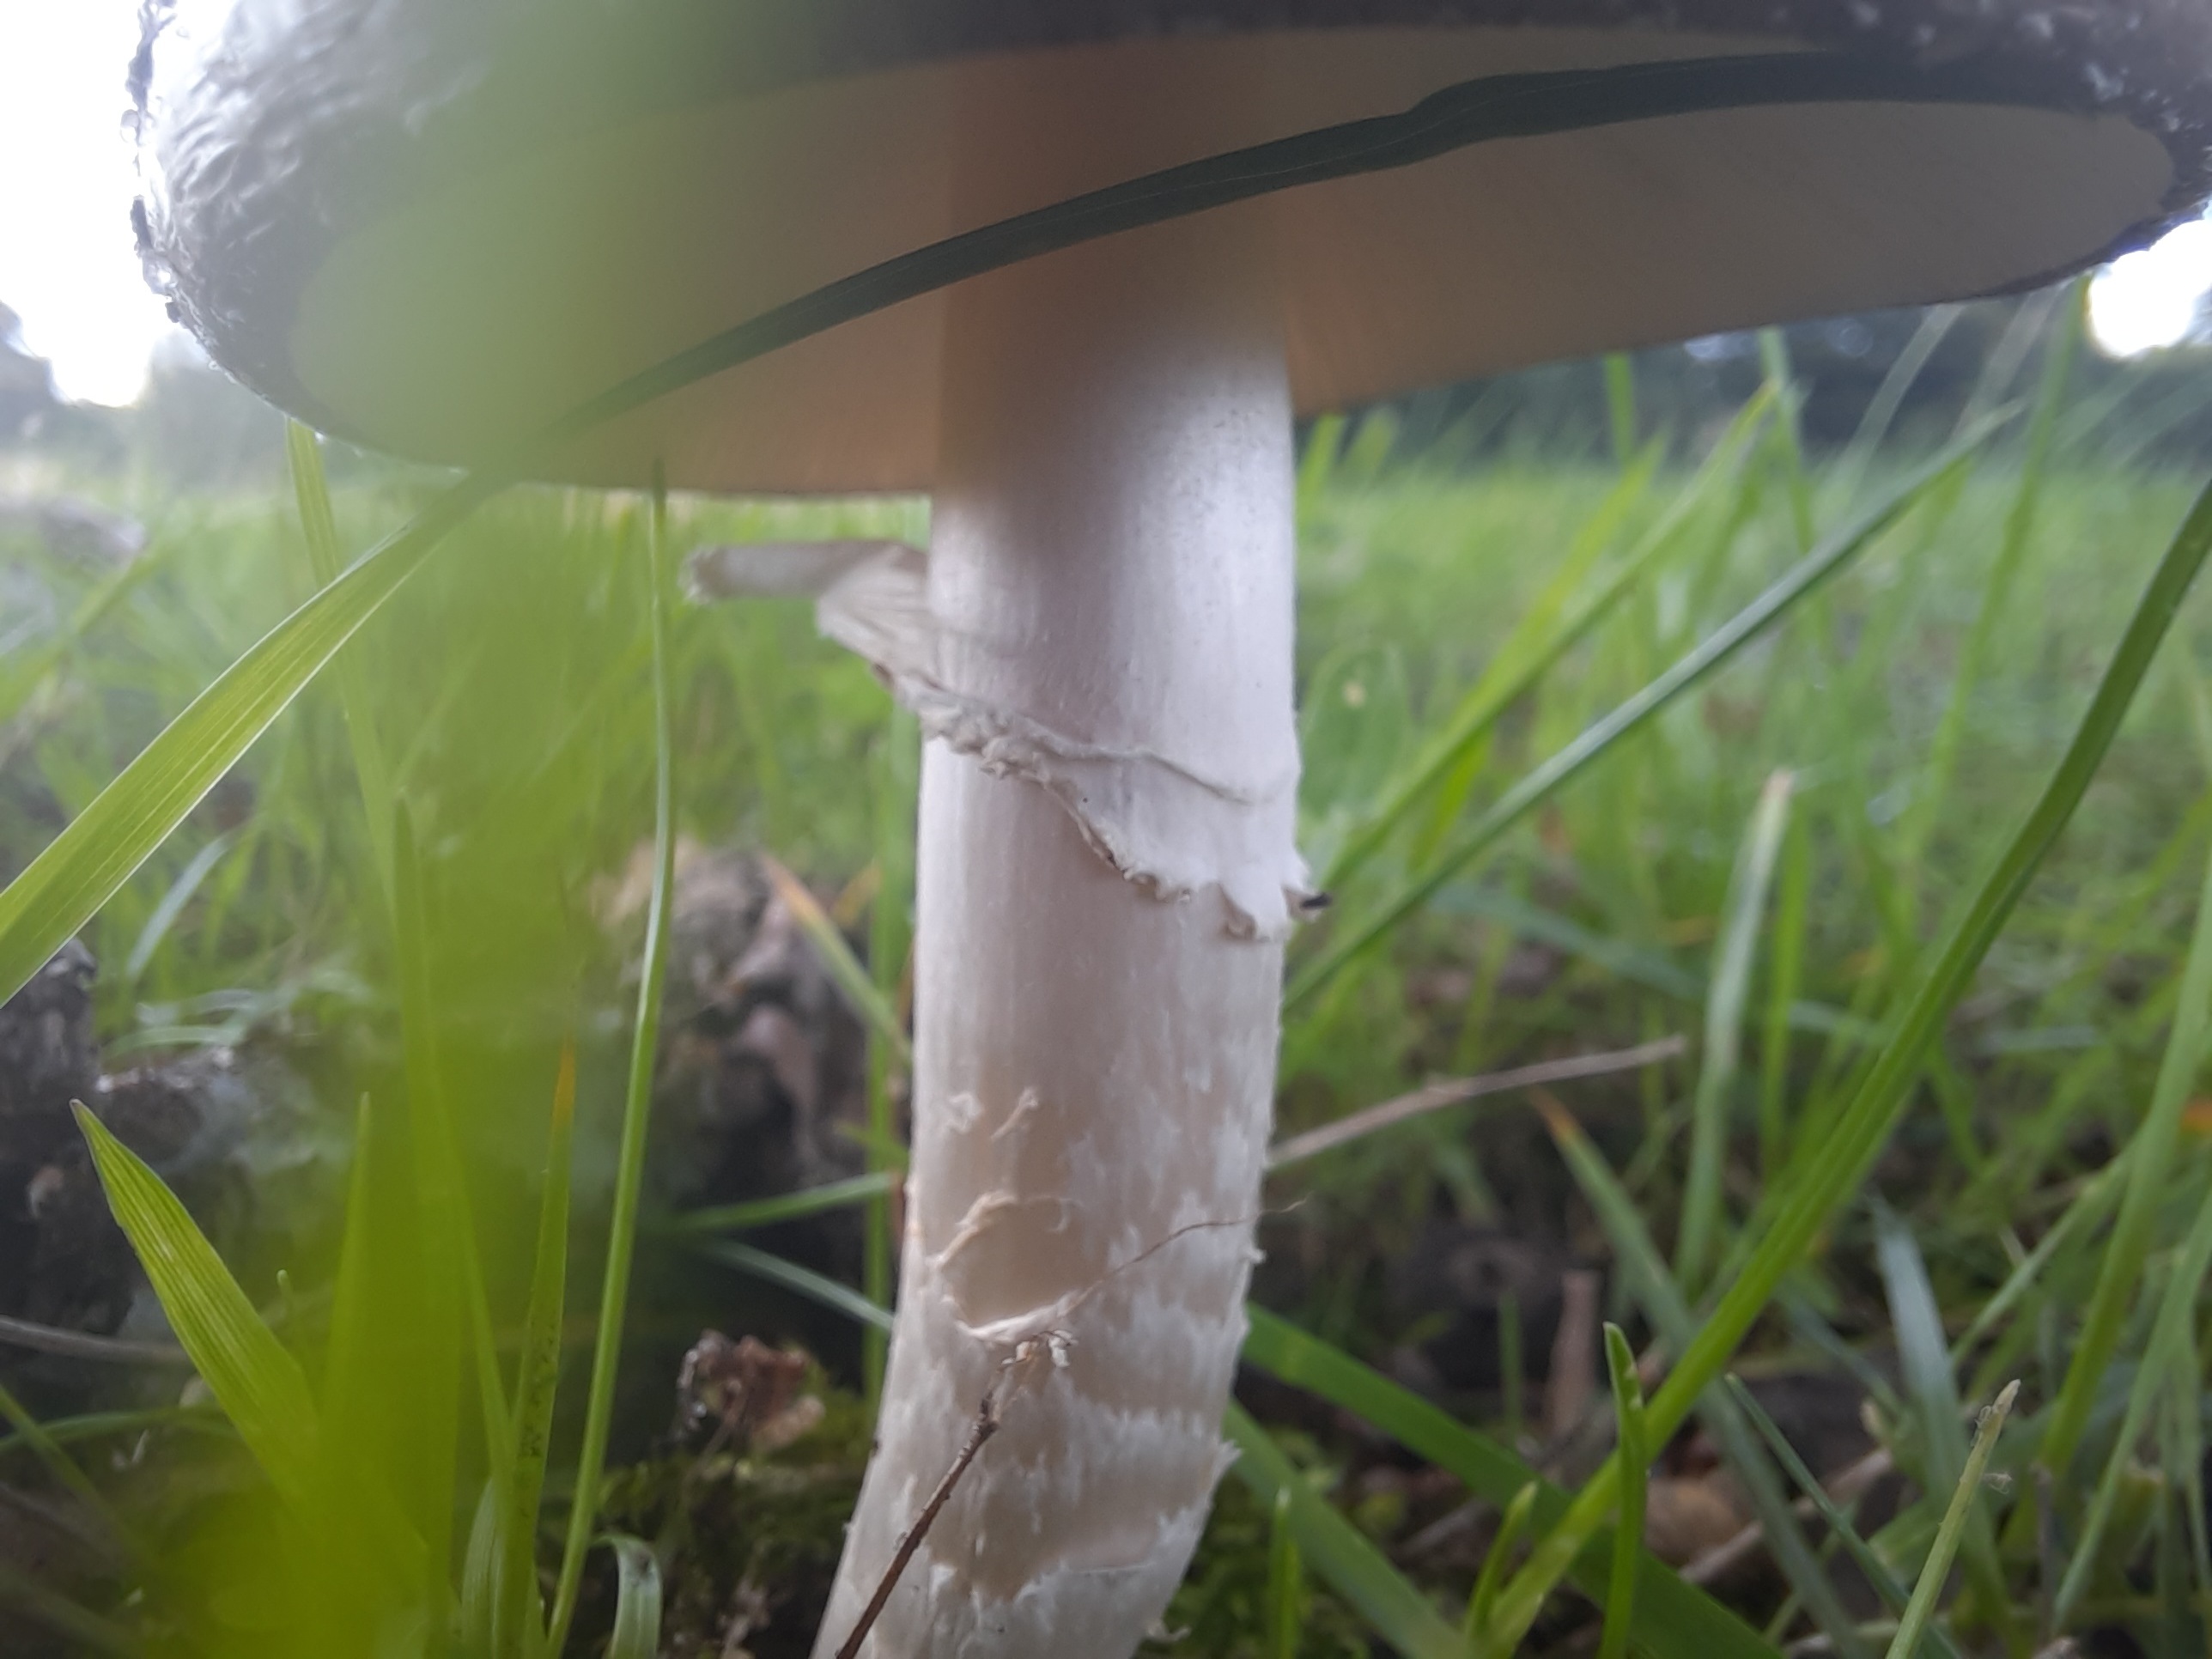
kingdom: Fungi
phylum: Basidiomycota
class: Agaricomycetes
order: Agaricales
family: Amanitaceae
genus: Amanita
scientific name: Amanita pantherina
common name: panter-fluesvamp
